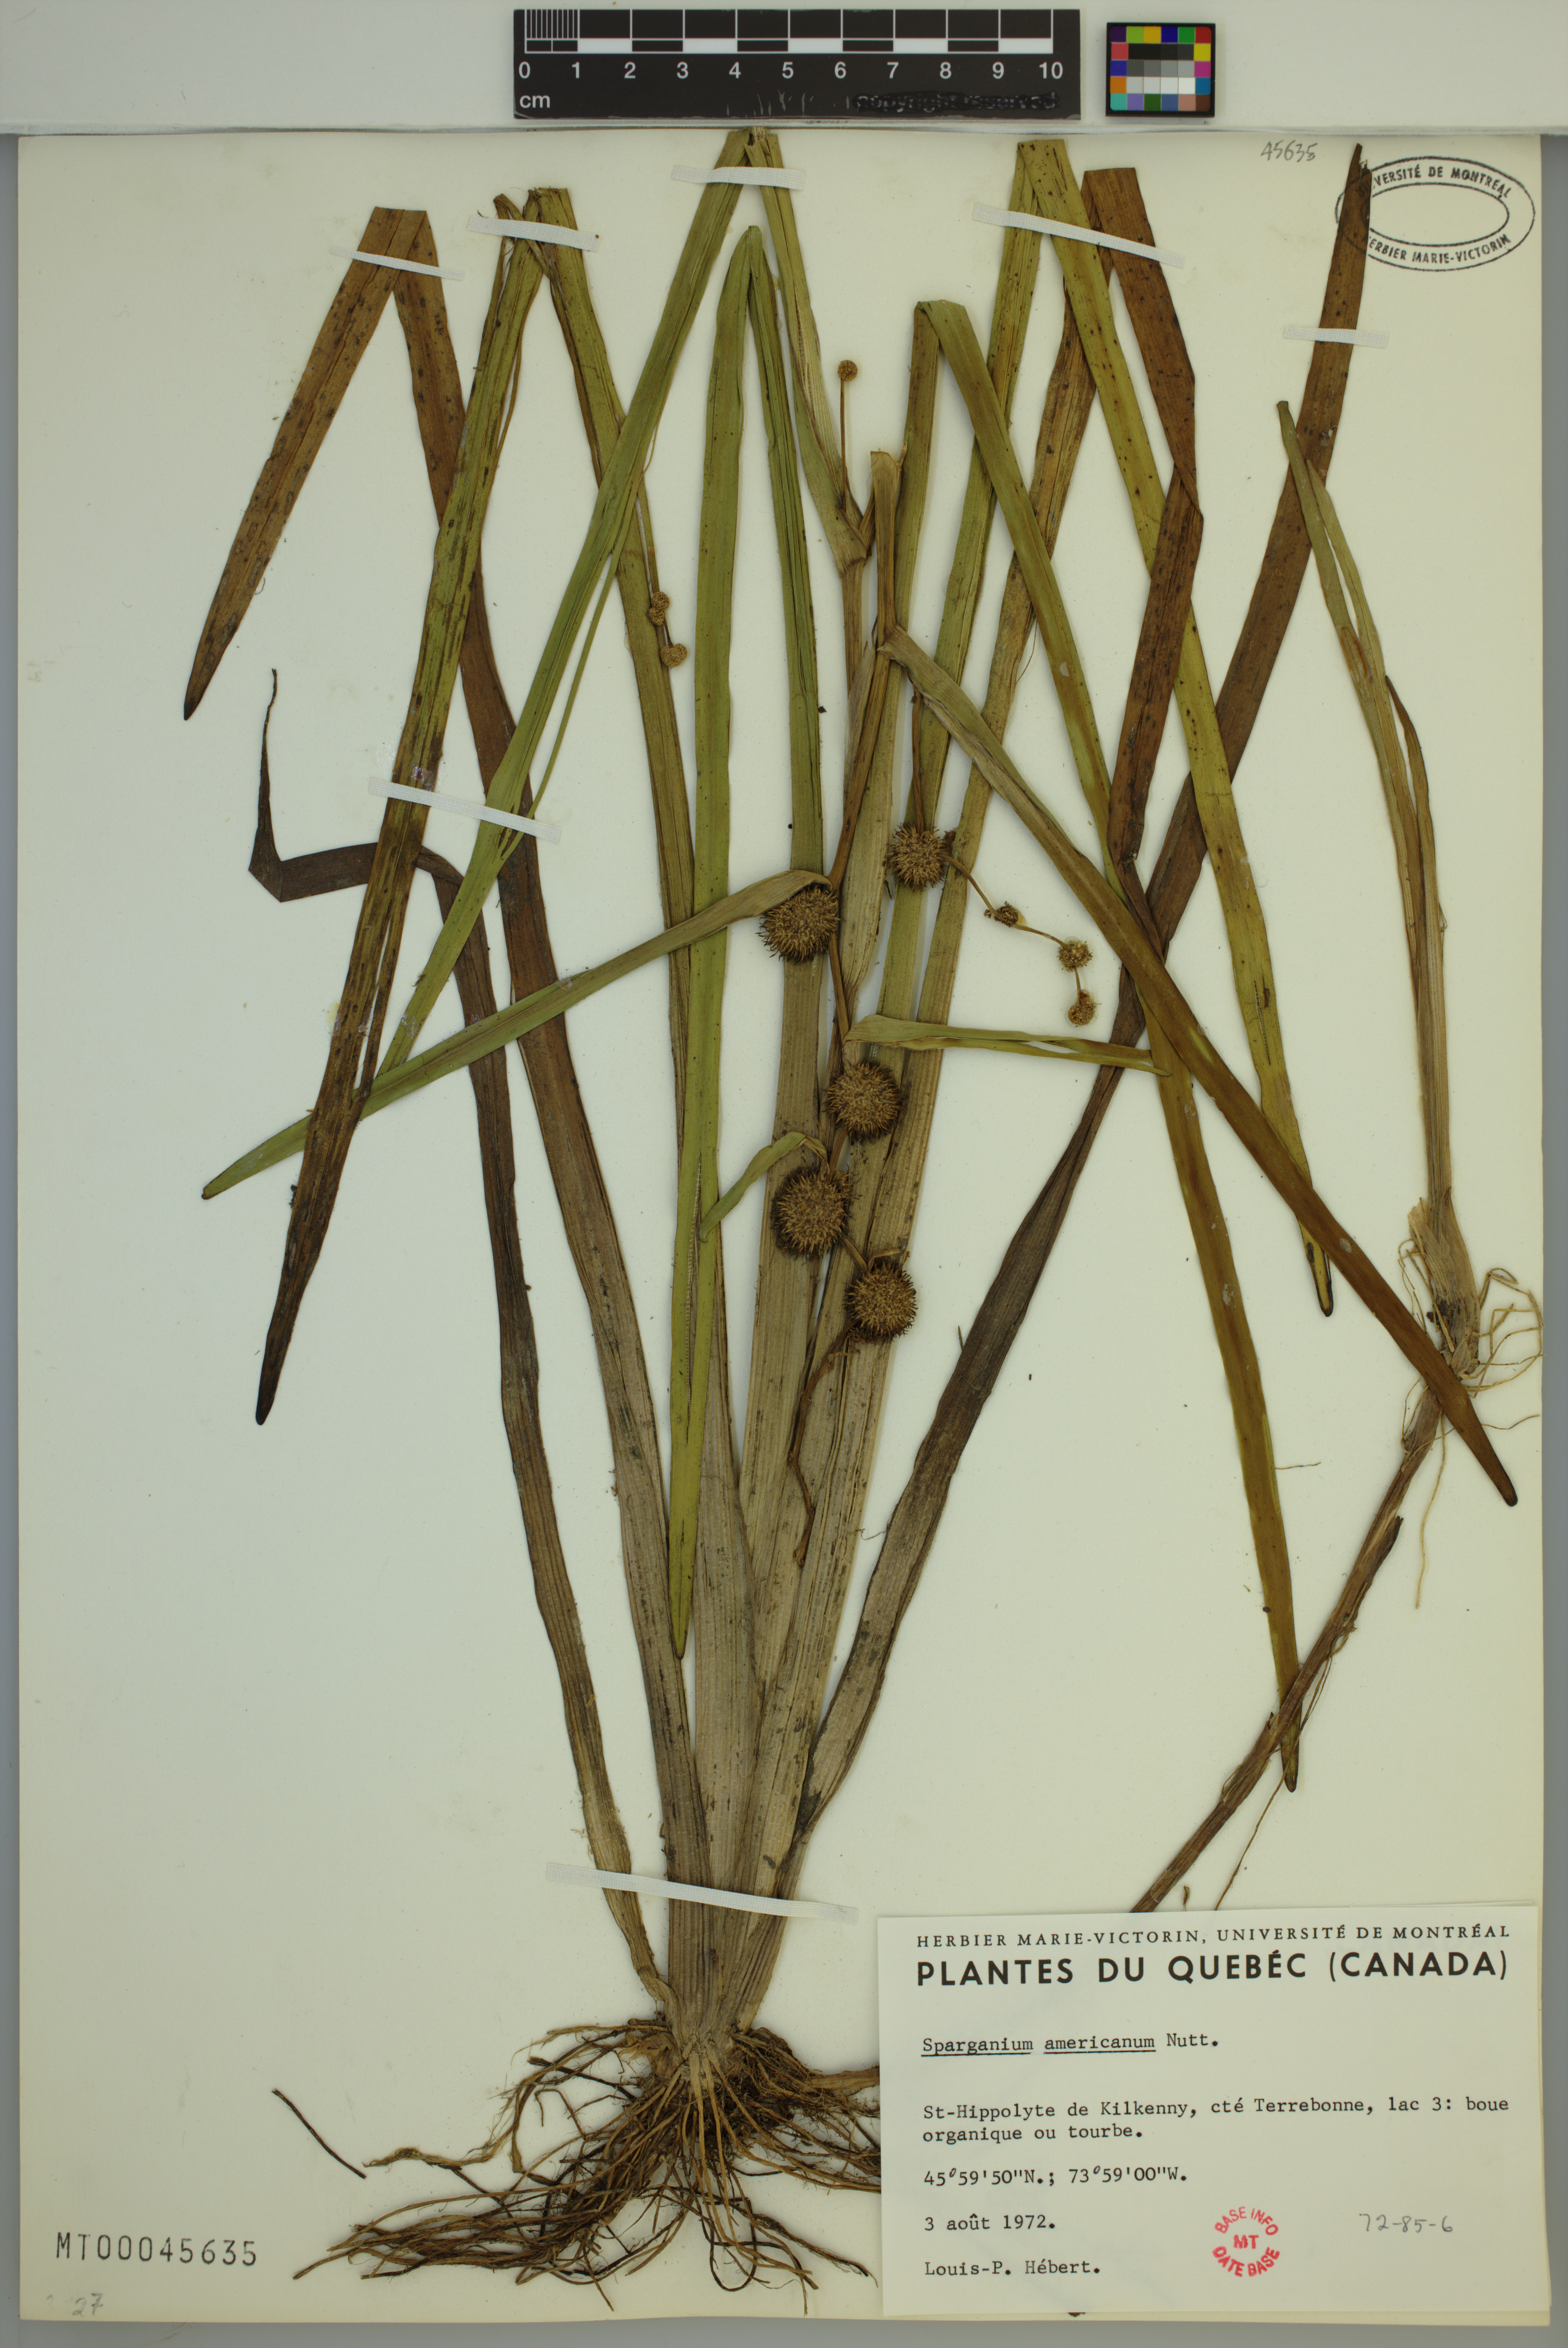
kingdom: Plantae
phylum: Tracheophyta
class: Liliopsida
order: Poales
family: Typhaceae
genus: Sparganium
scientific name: Sparganium americanum
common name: American burreed
